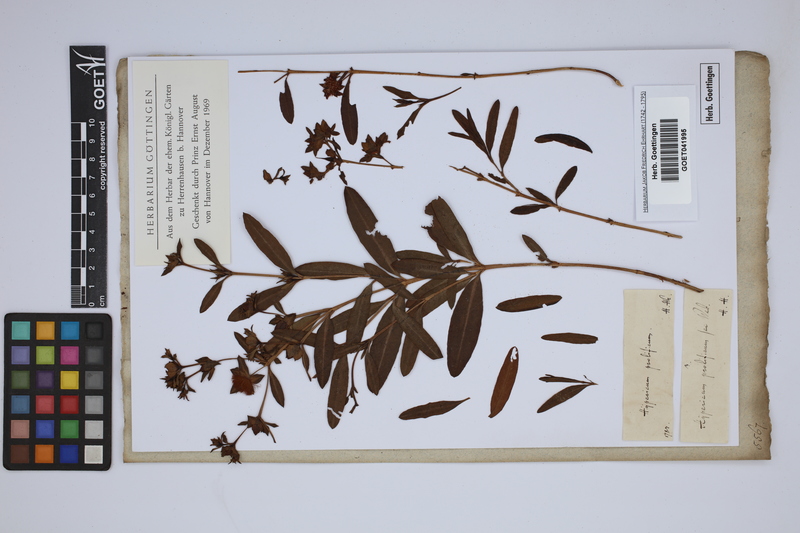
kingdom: Plantae
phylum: Tracheophyta
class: Magnoliopsida
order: Malpighiales
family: Hypericaceae
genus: Hypericum
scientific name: Hypericum prolificum
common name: Shrubby st. john's-wort
